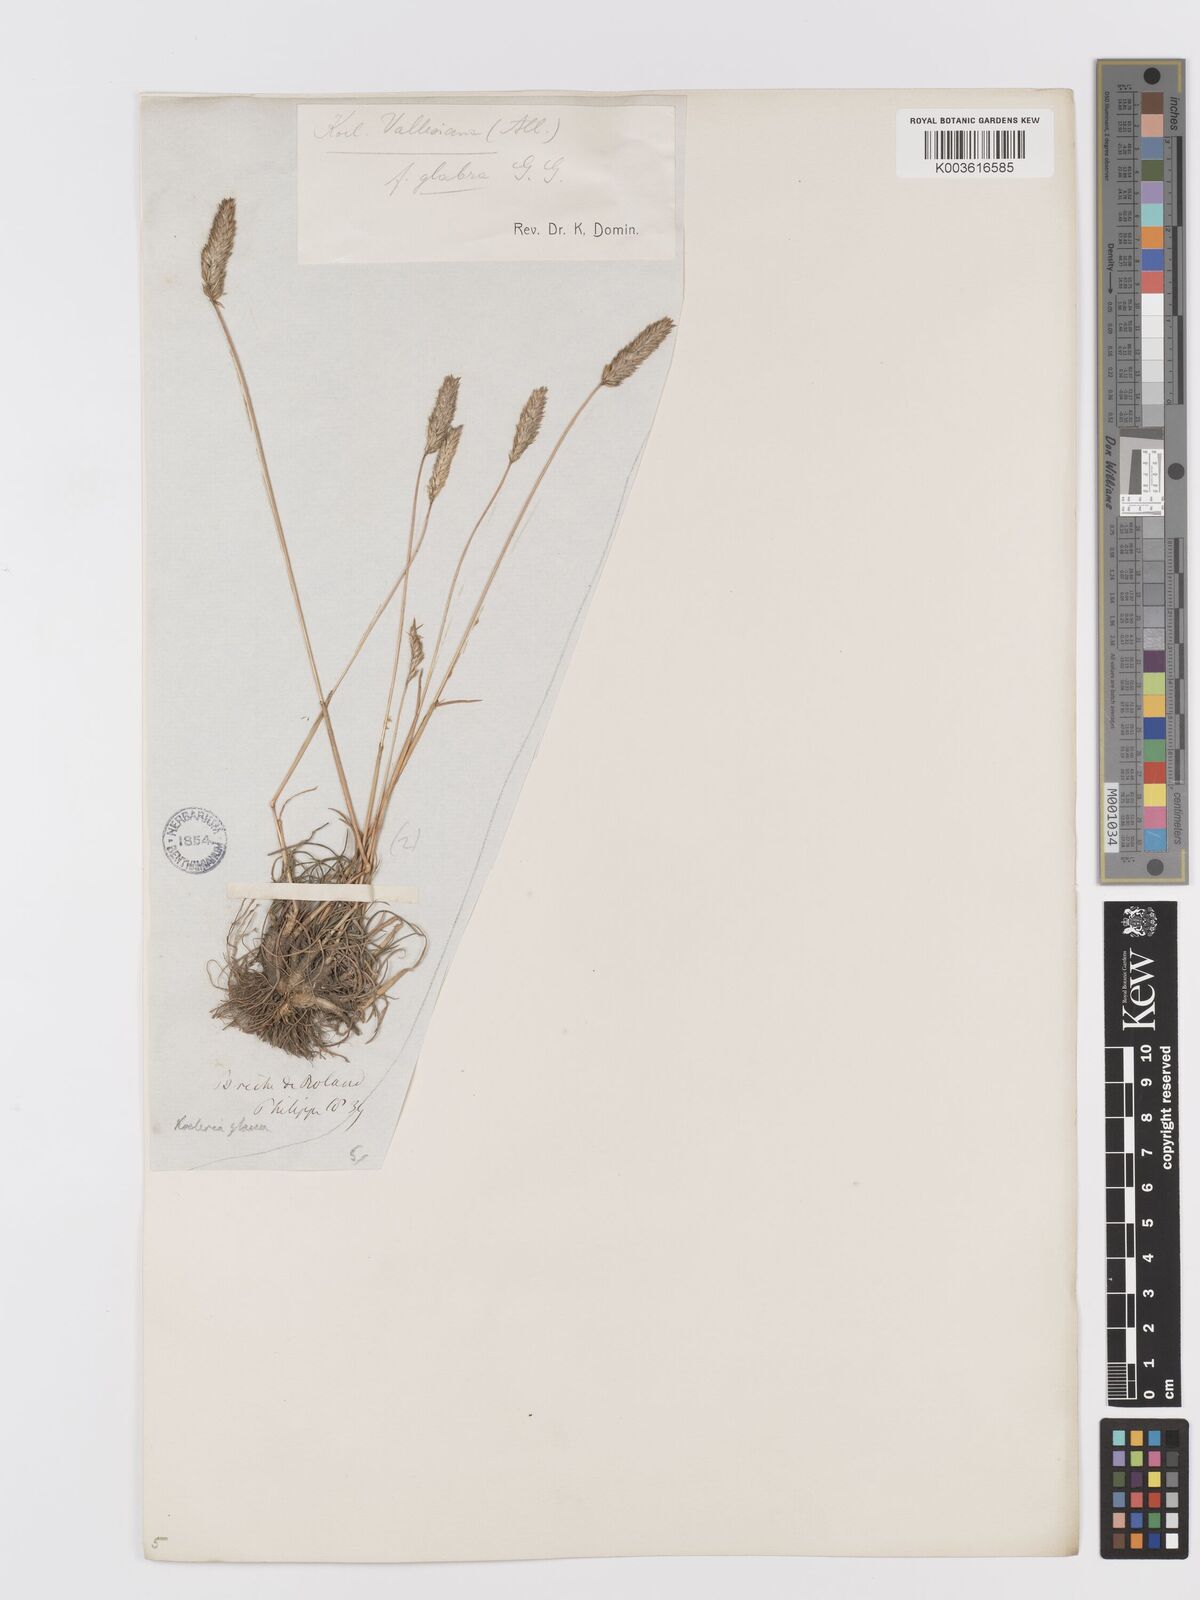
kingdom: Plantae
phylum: Tracheophyta
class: Liliopsida
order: Poales
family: Poaceae
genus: Koeleria
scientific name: Koeleria vallesiana
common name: Somerset hair-grass
